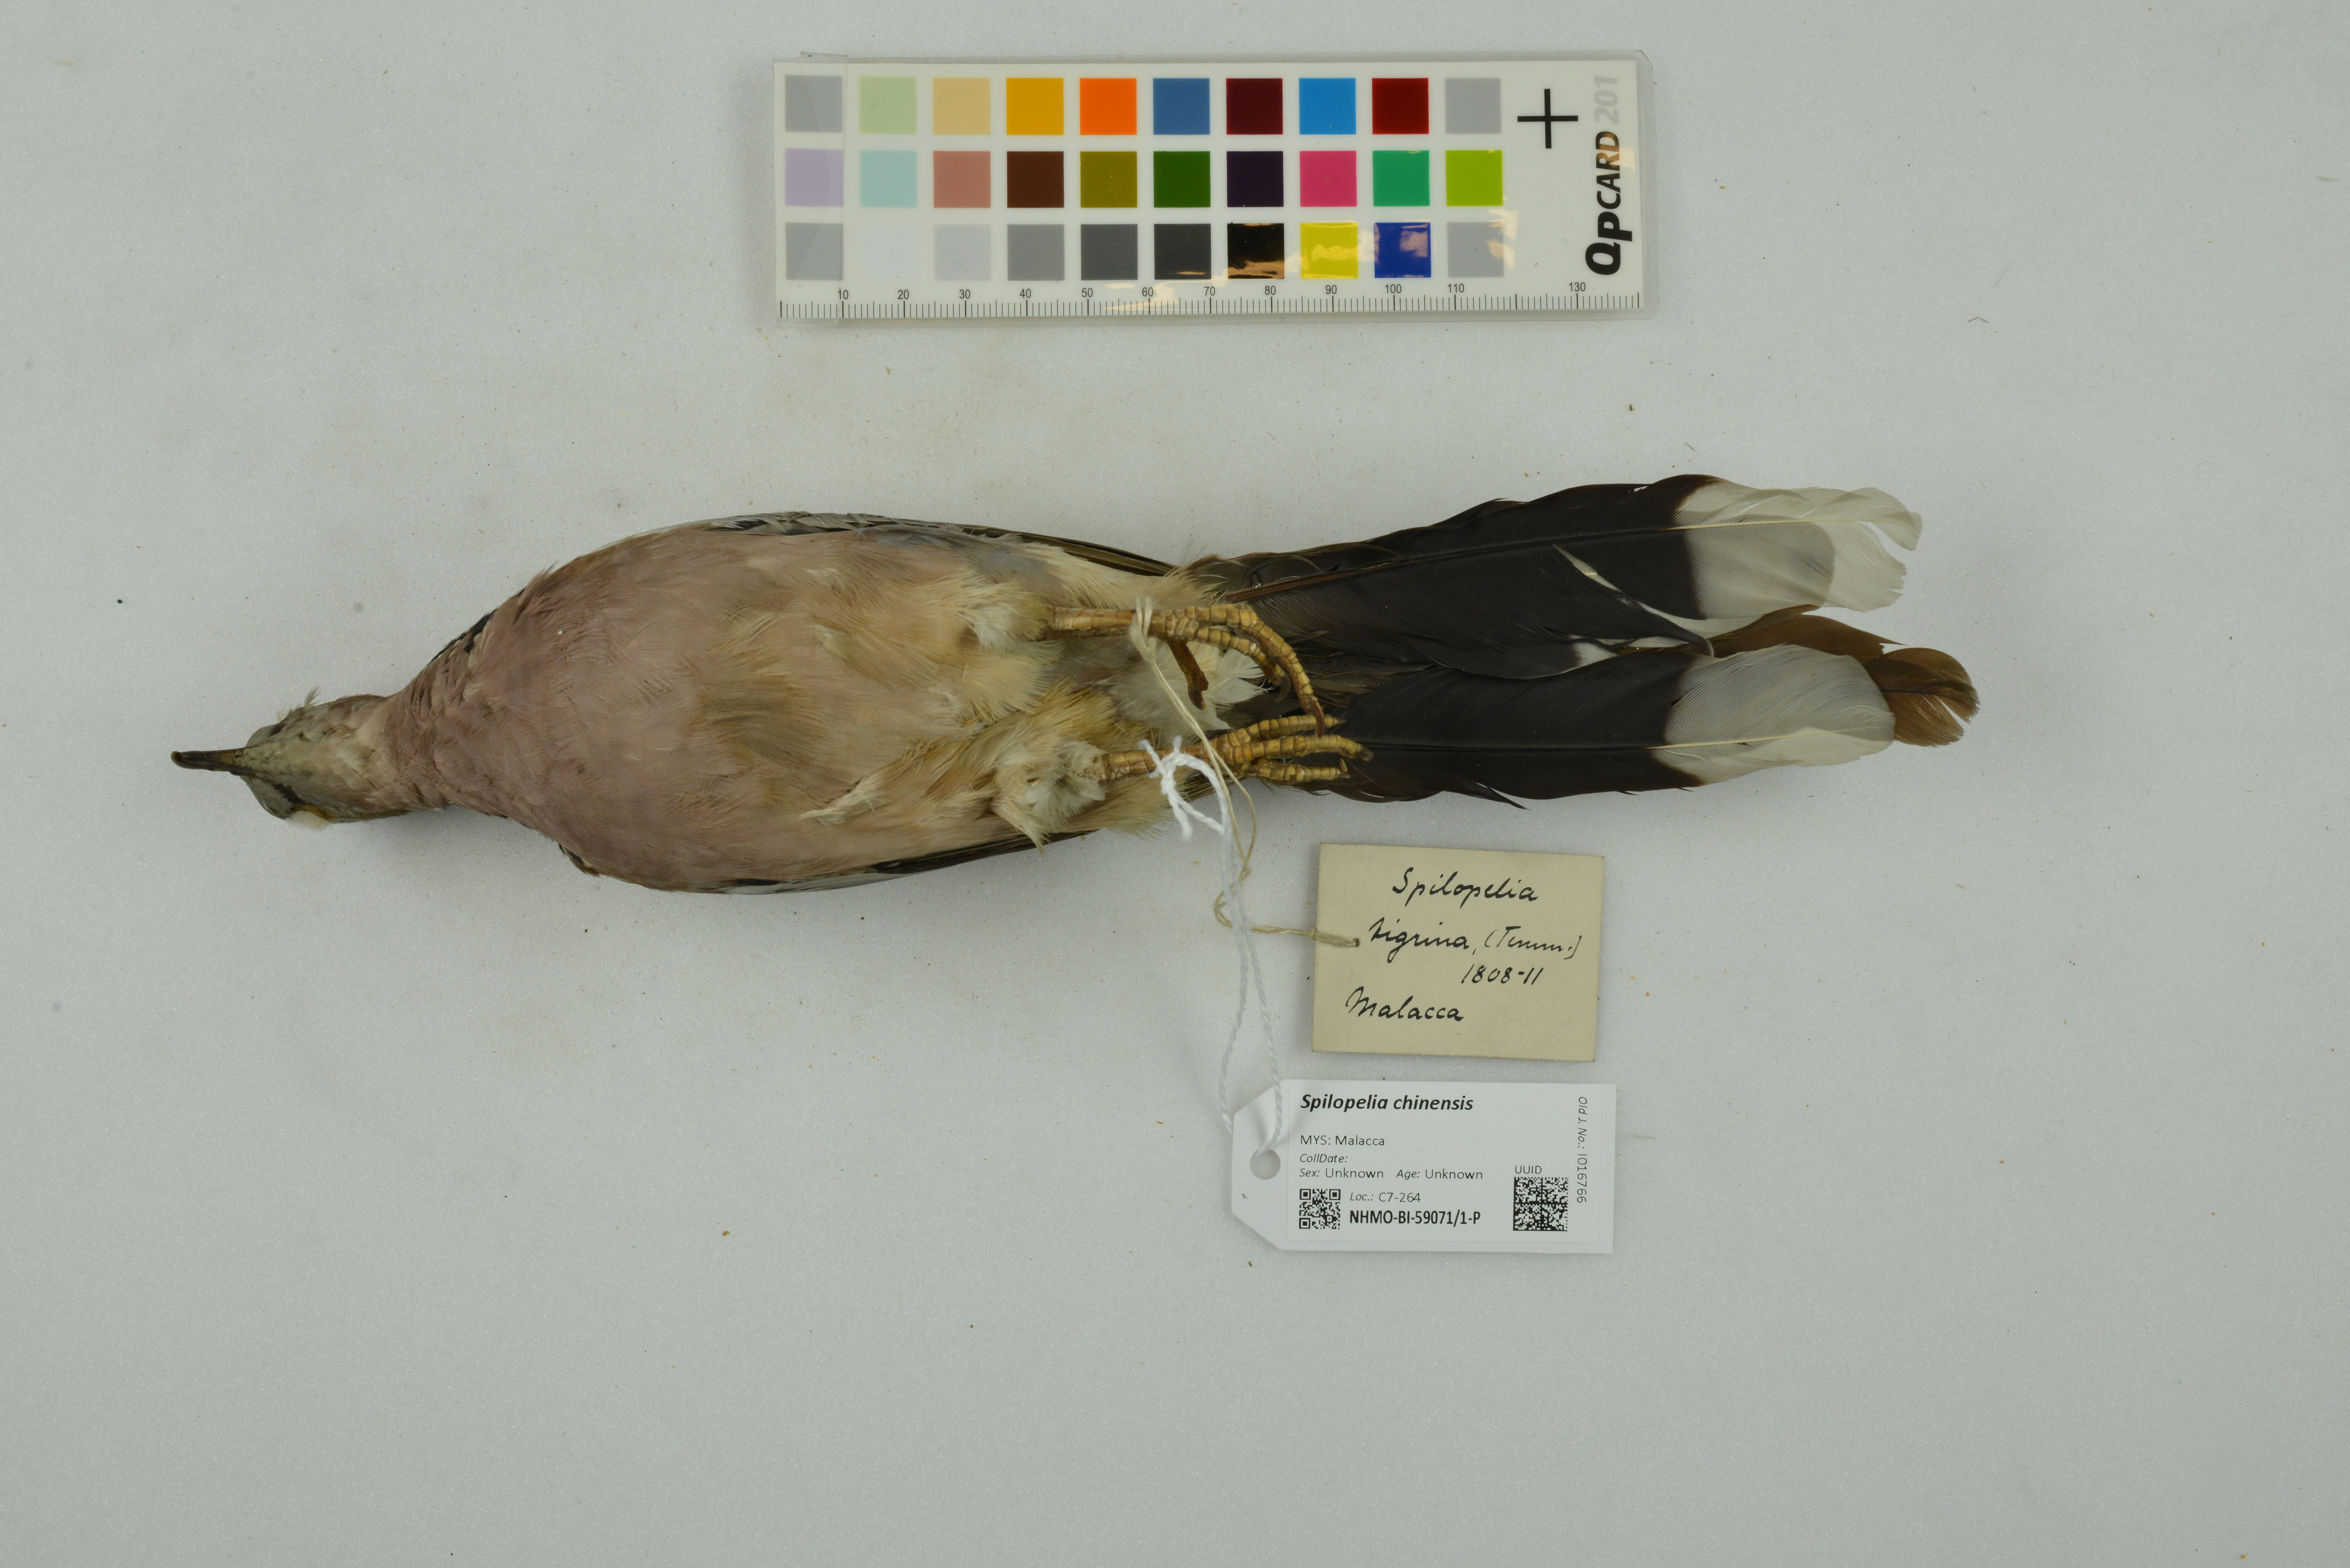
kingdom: Animalia
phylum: Chordata
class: Aves
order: Columbiformes
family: Columbidae
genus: Spilopelia
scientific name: Spilopelia chinensis
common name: Spotted dove
